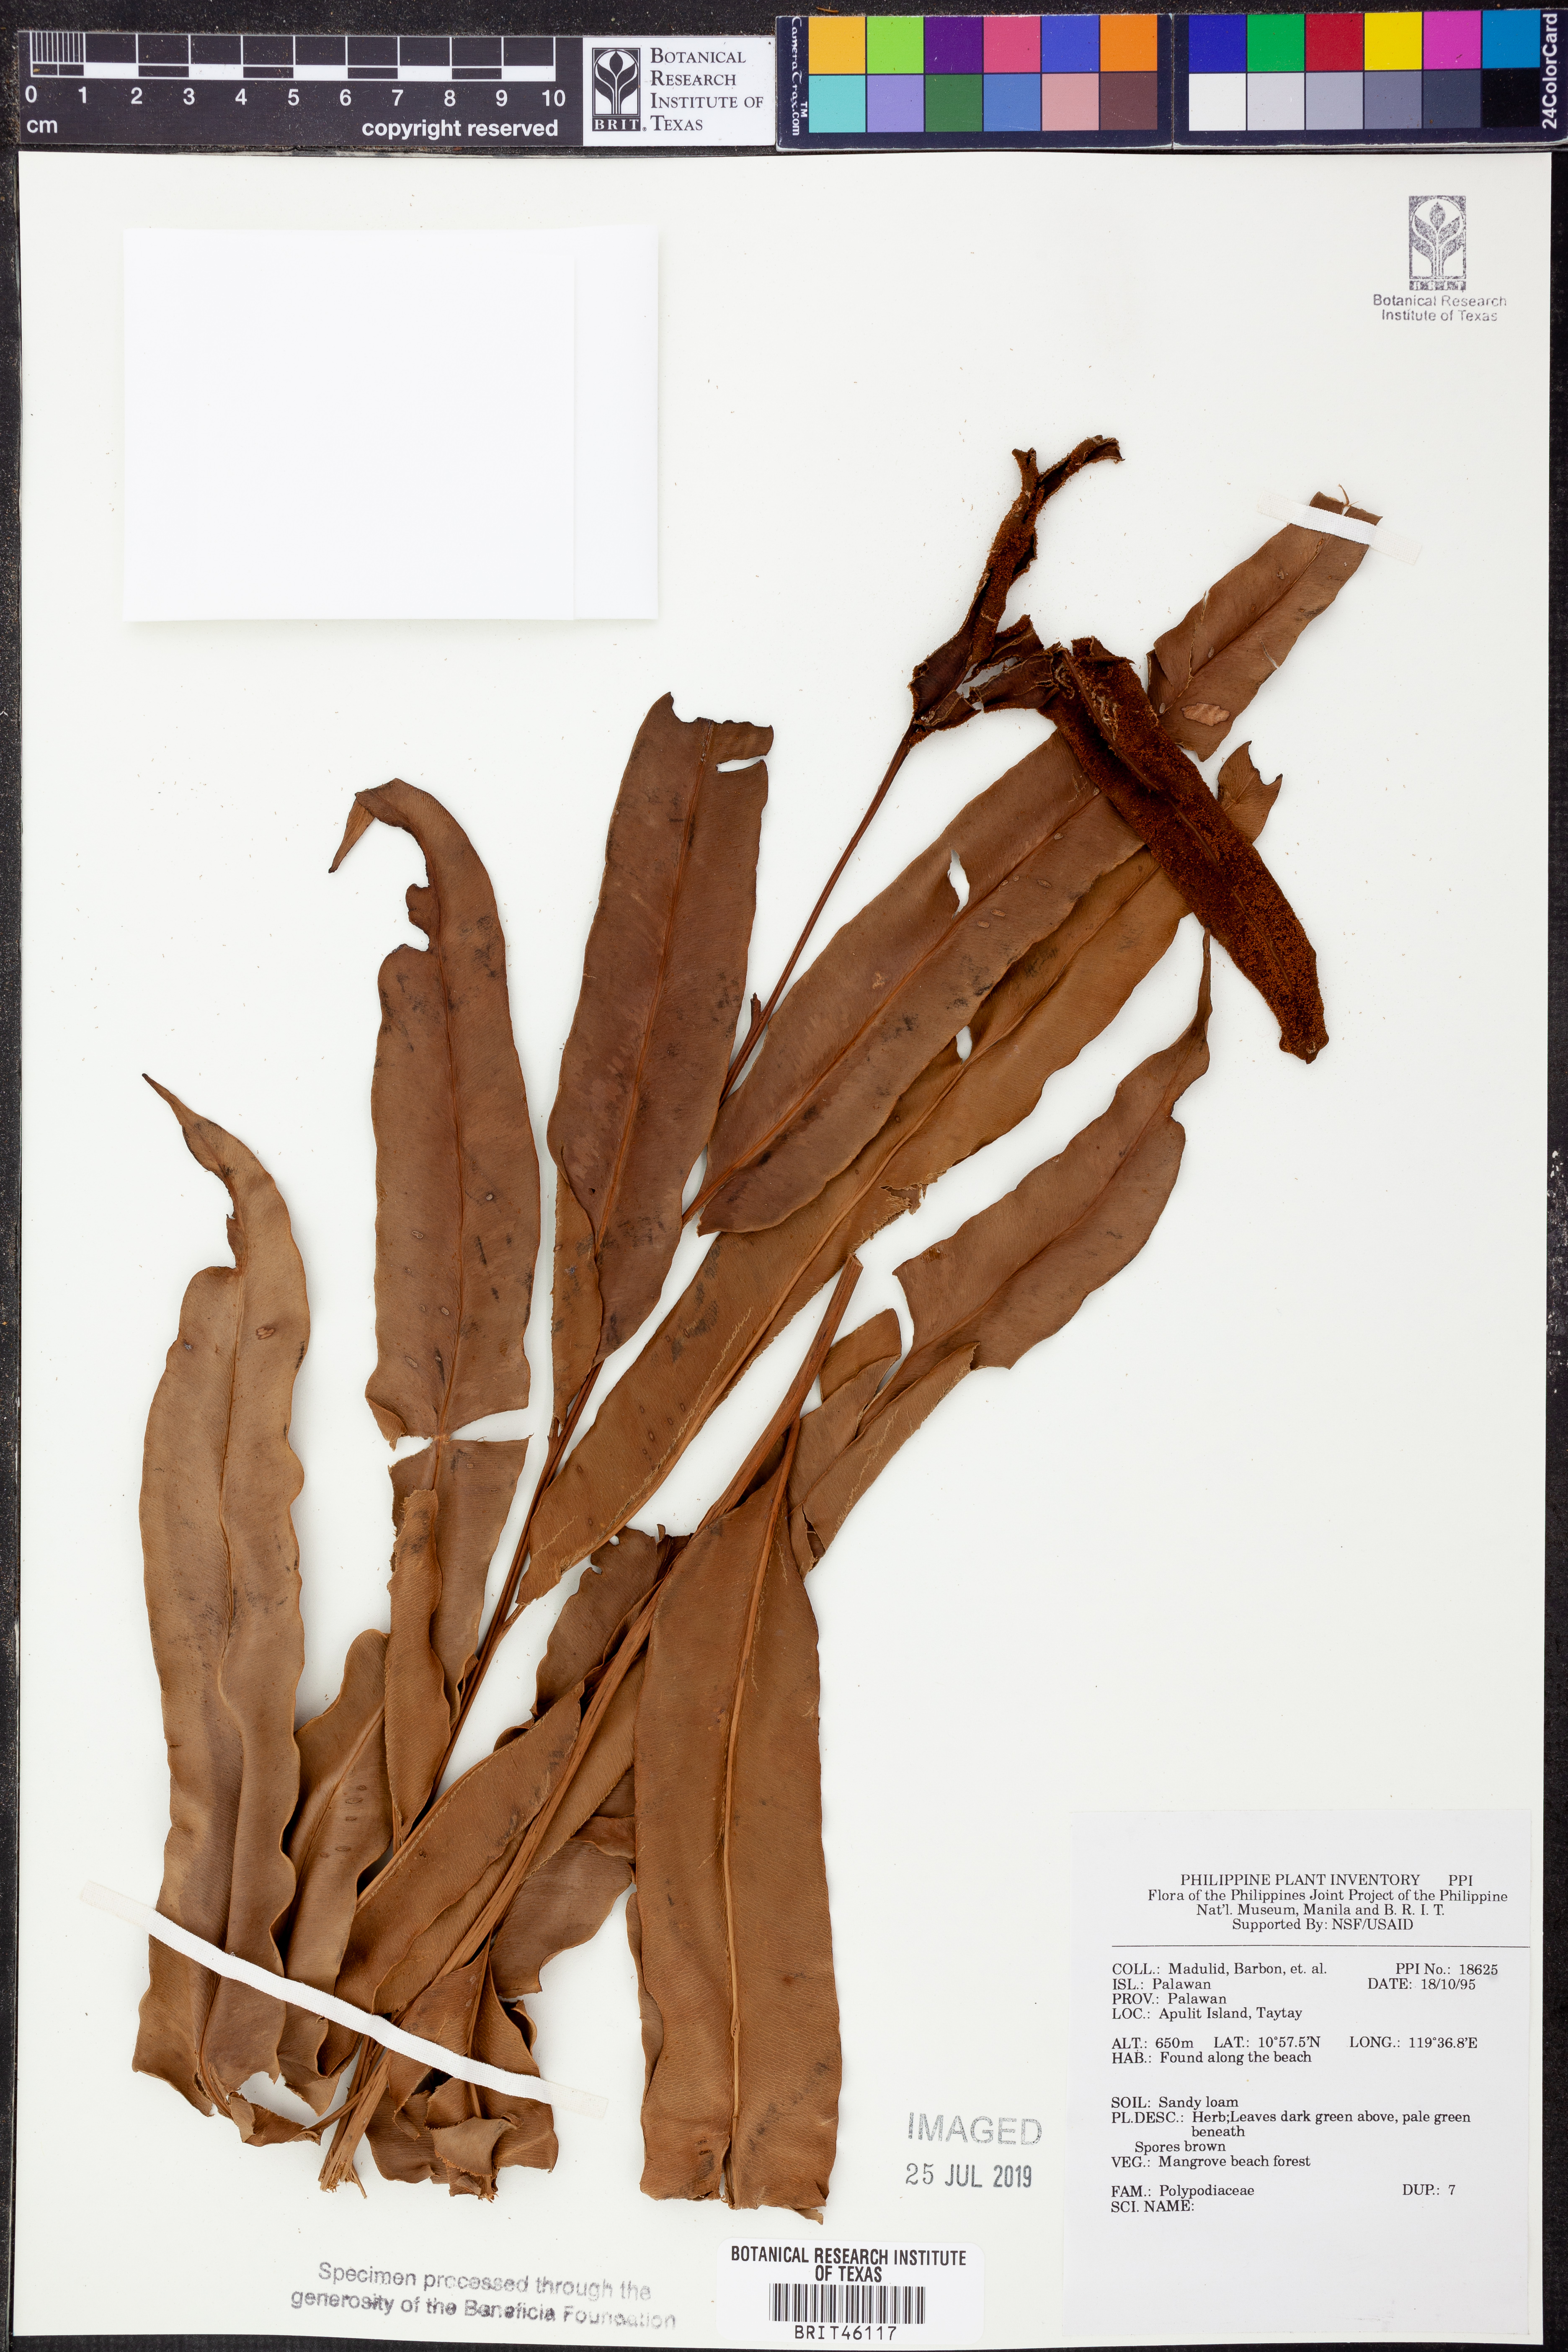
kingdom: Plantae
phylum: Tracheophyta
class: Polypodiopsida
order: Polypodiales
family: Polypodiaceae
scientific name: Polypodiaceae
